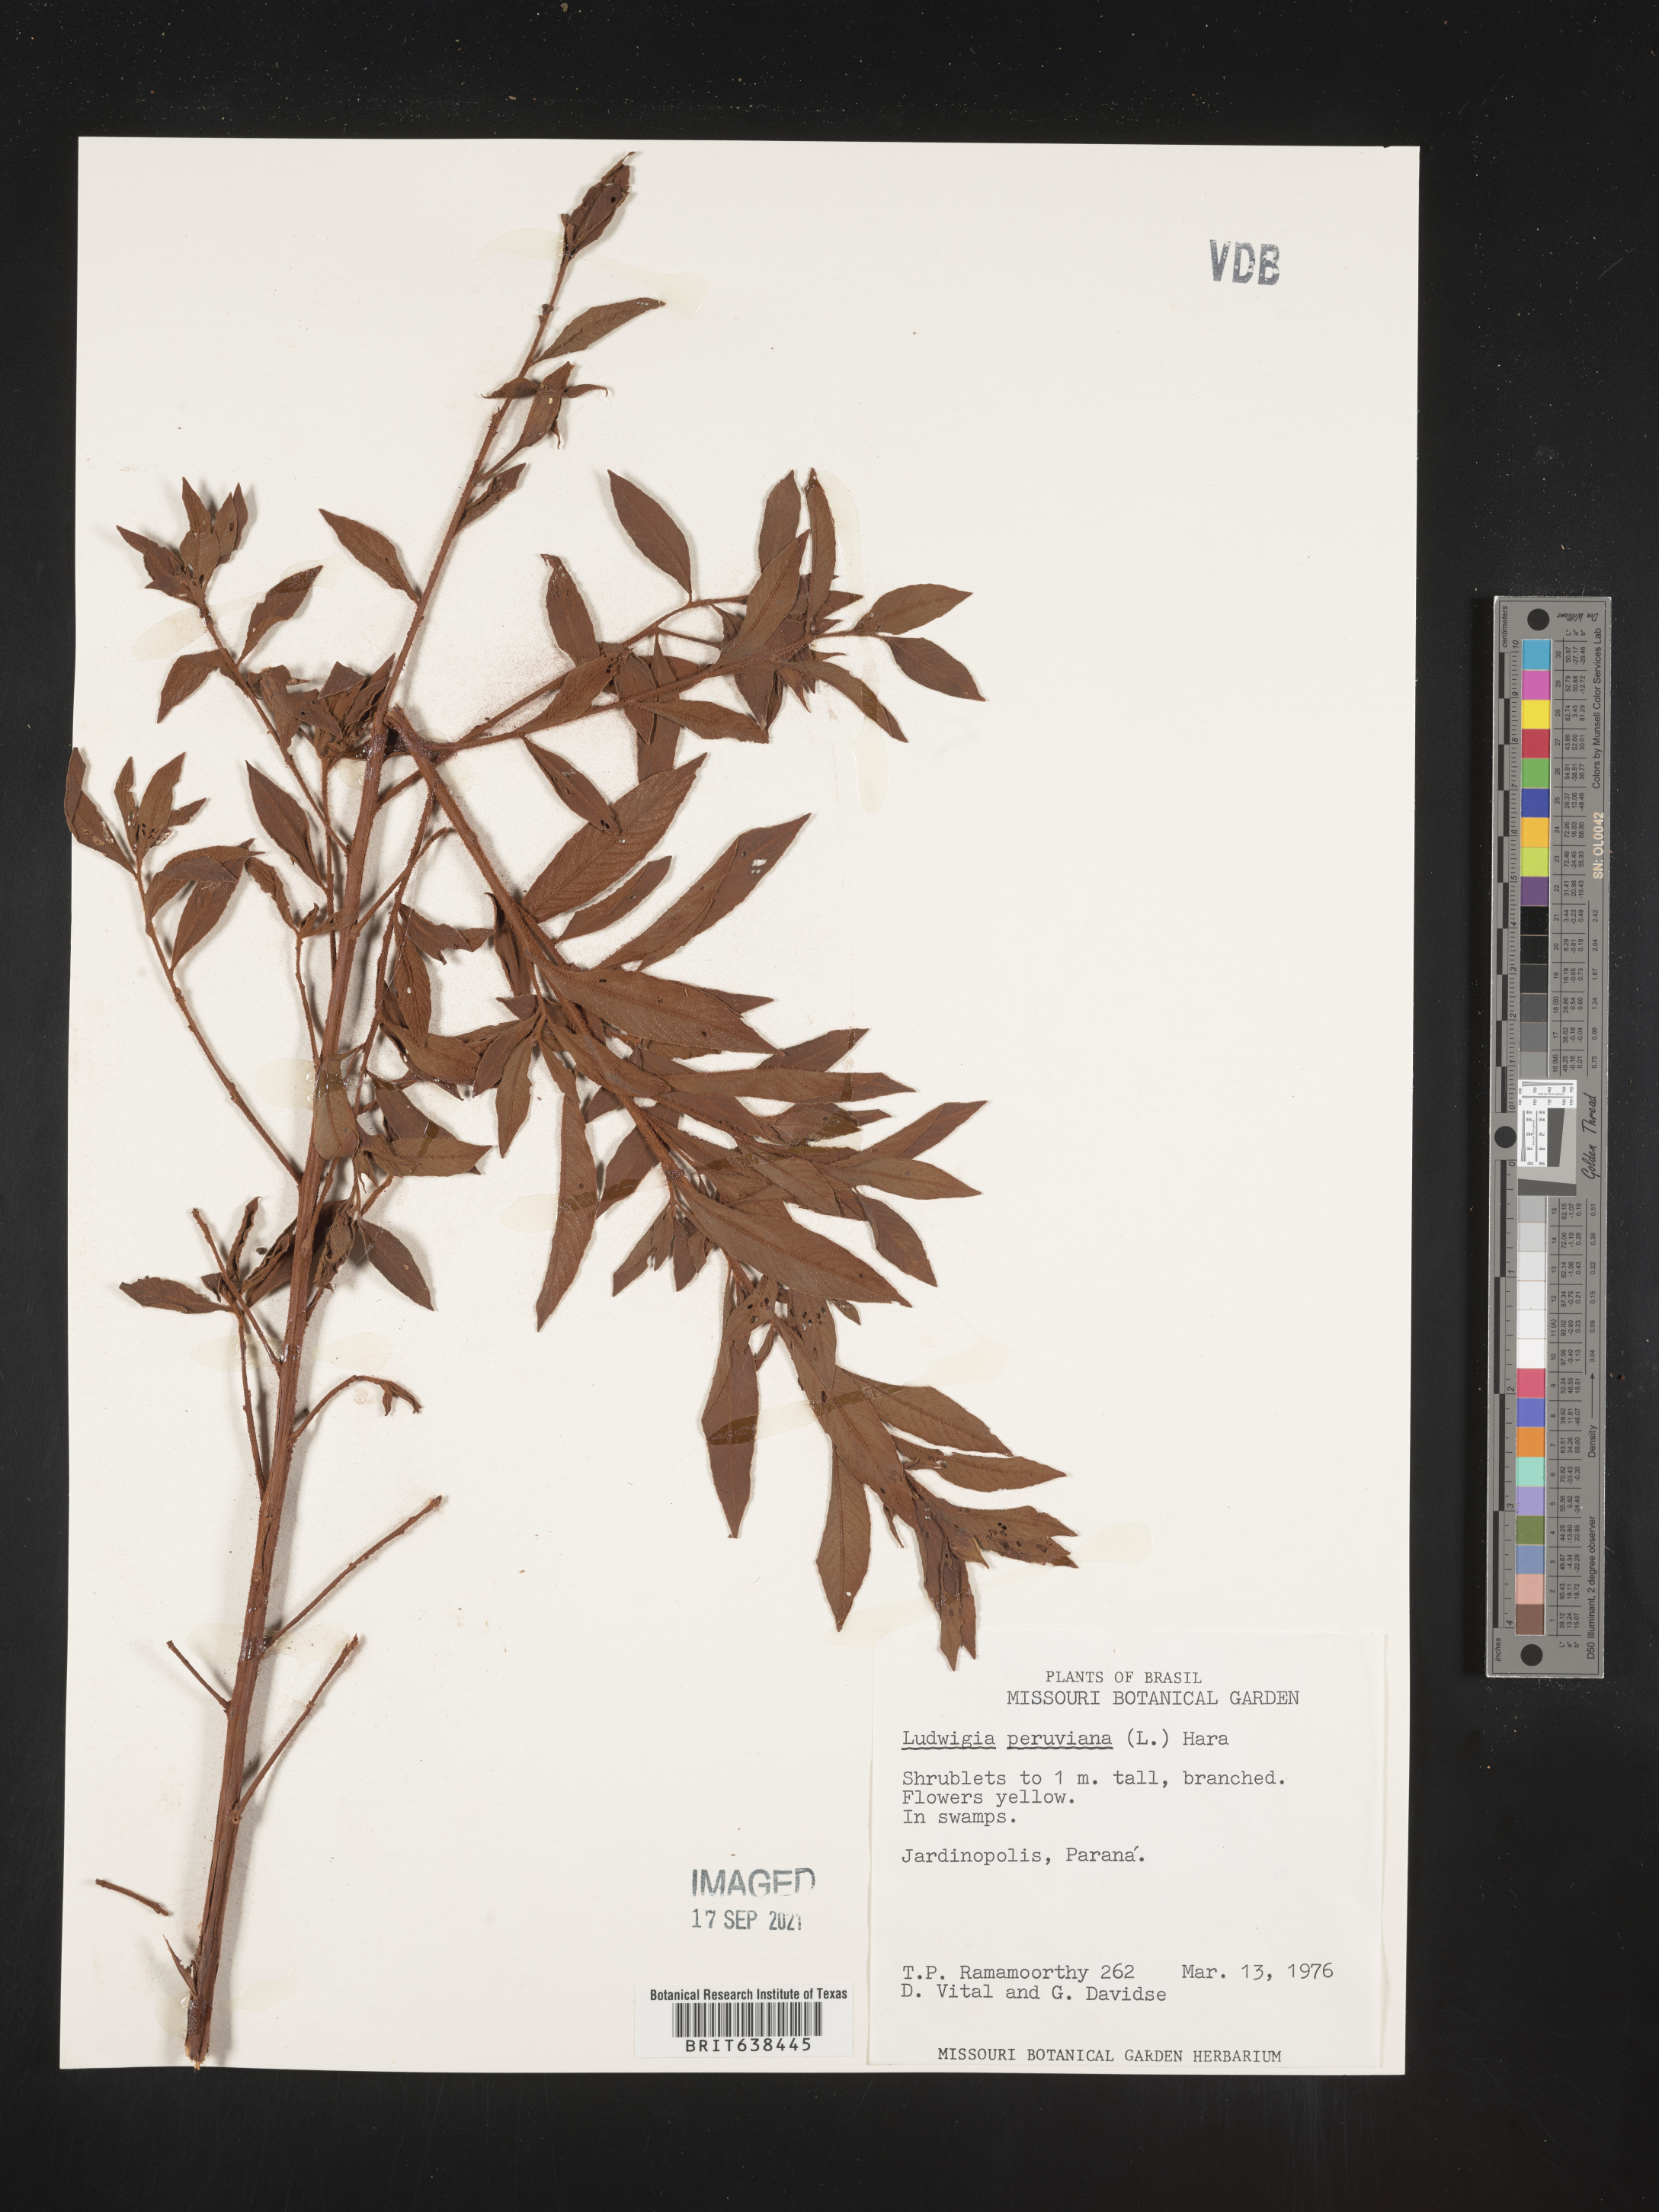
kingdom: Plantae
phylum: Tracheophyta
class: Magnoliopsida
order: Myrtales
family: Onagraceae
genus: Ludwigia
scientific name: Ludwigia
